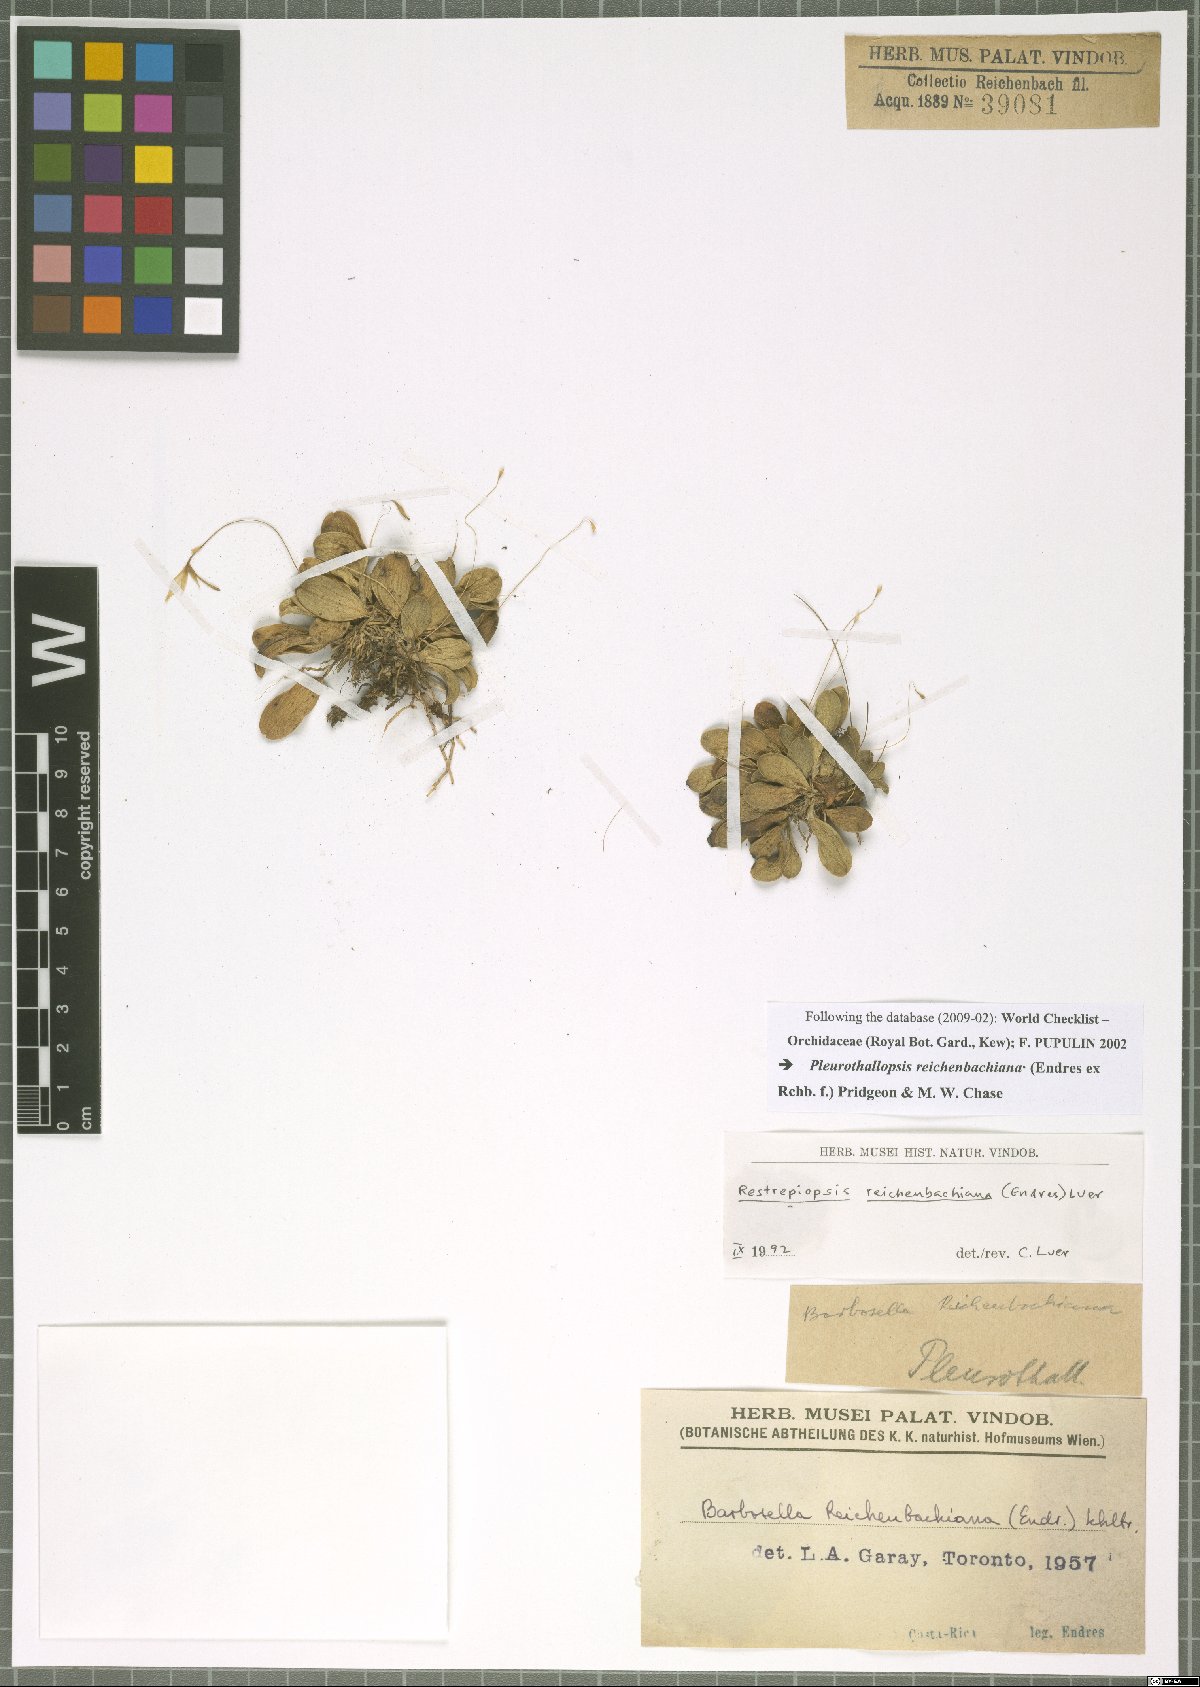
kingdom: Plantae
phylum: Tracheophyta
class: Liliopsida
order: Asparagales
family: Orchidaceae
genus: Pleurothallopsis
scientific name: Pleurothallopsis reichenbachiana
